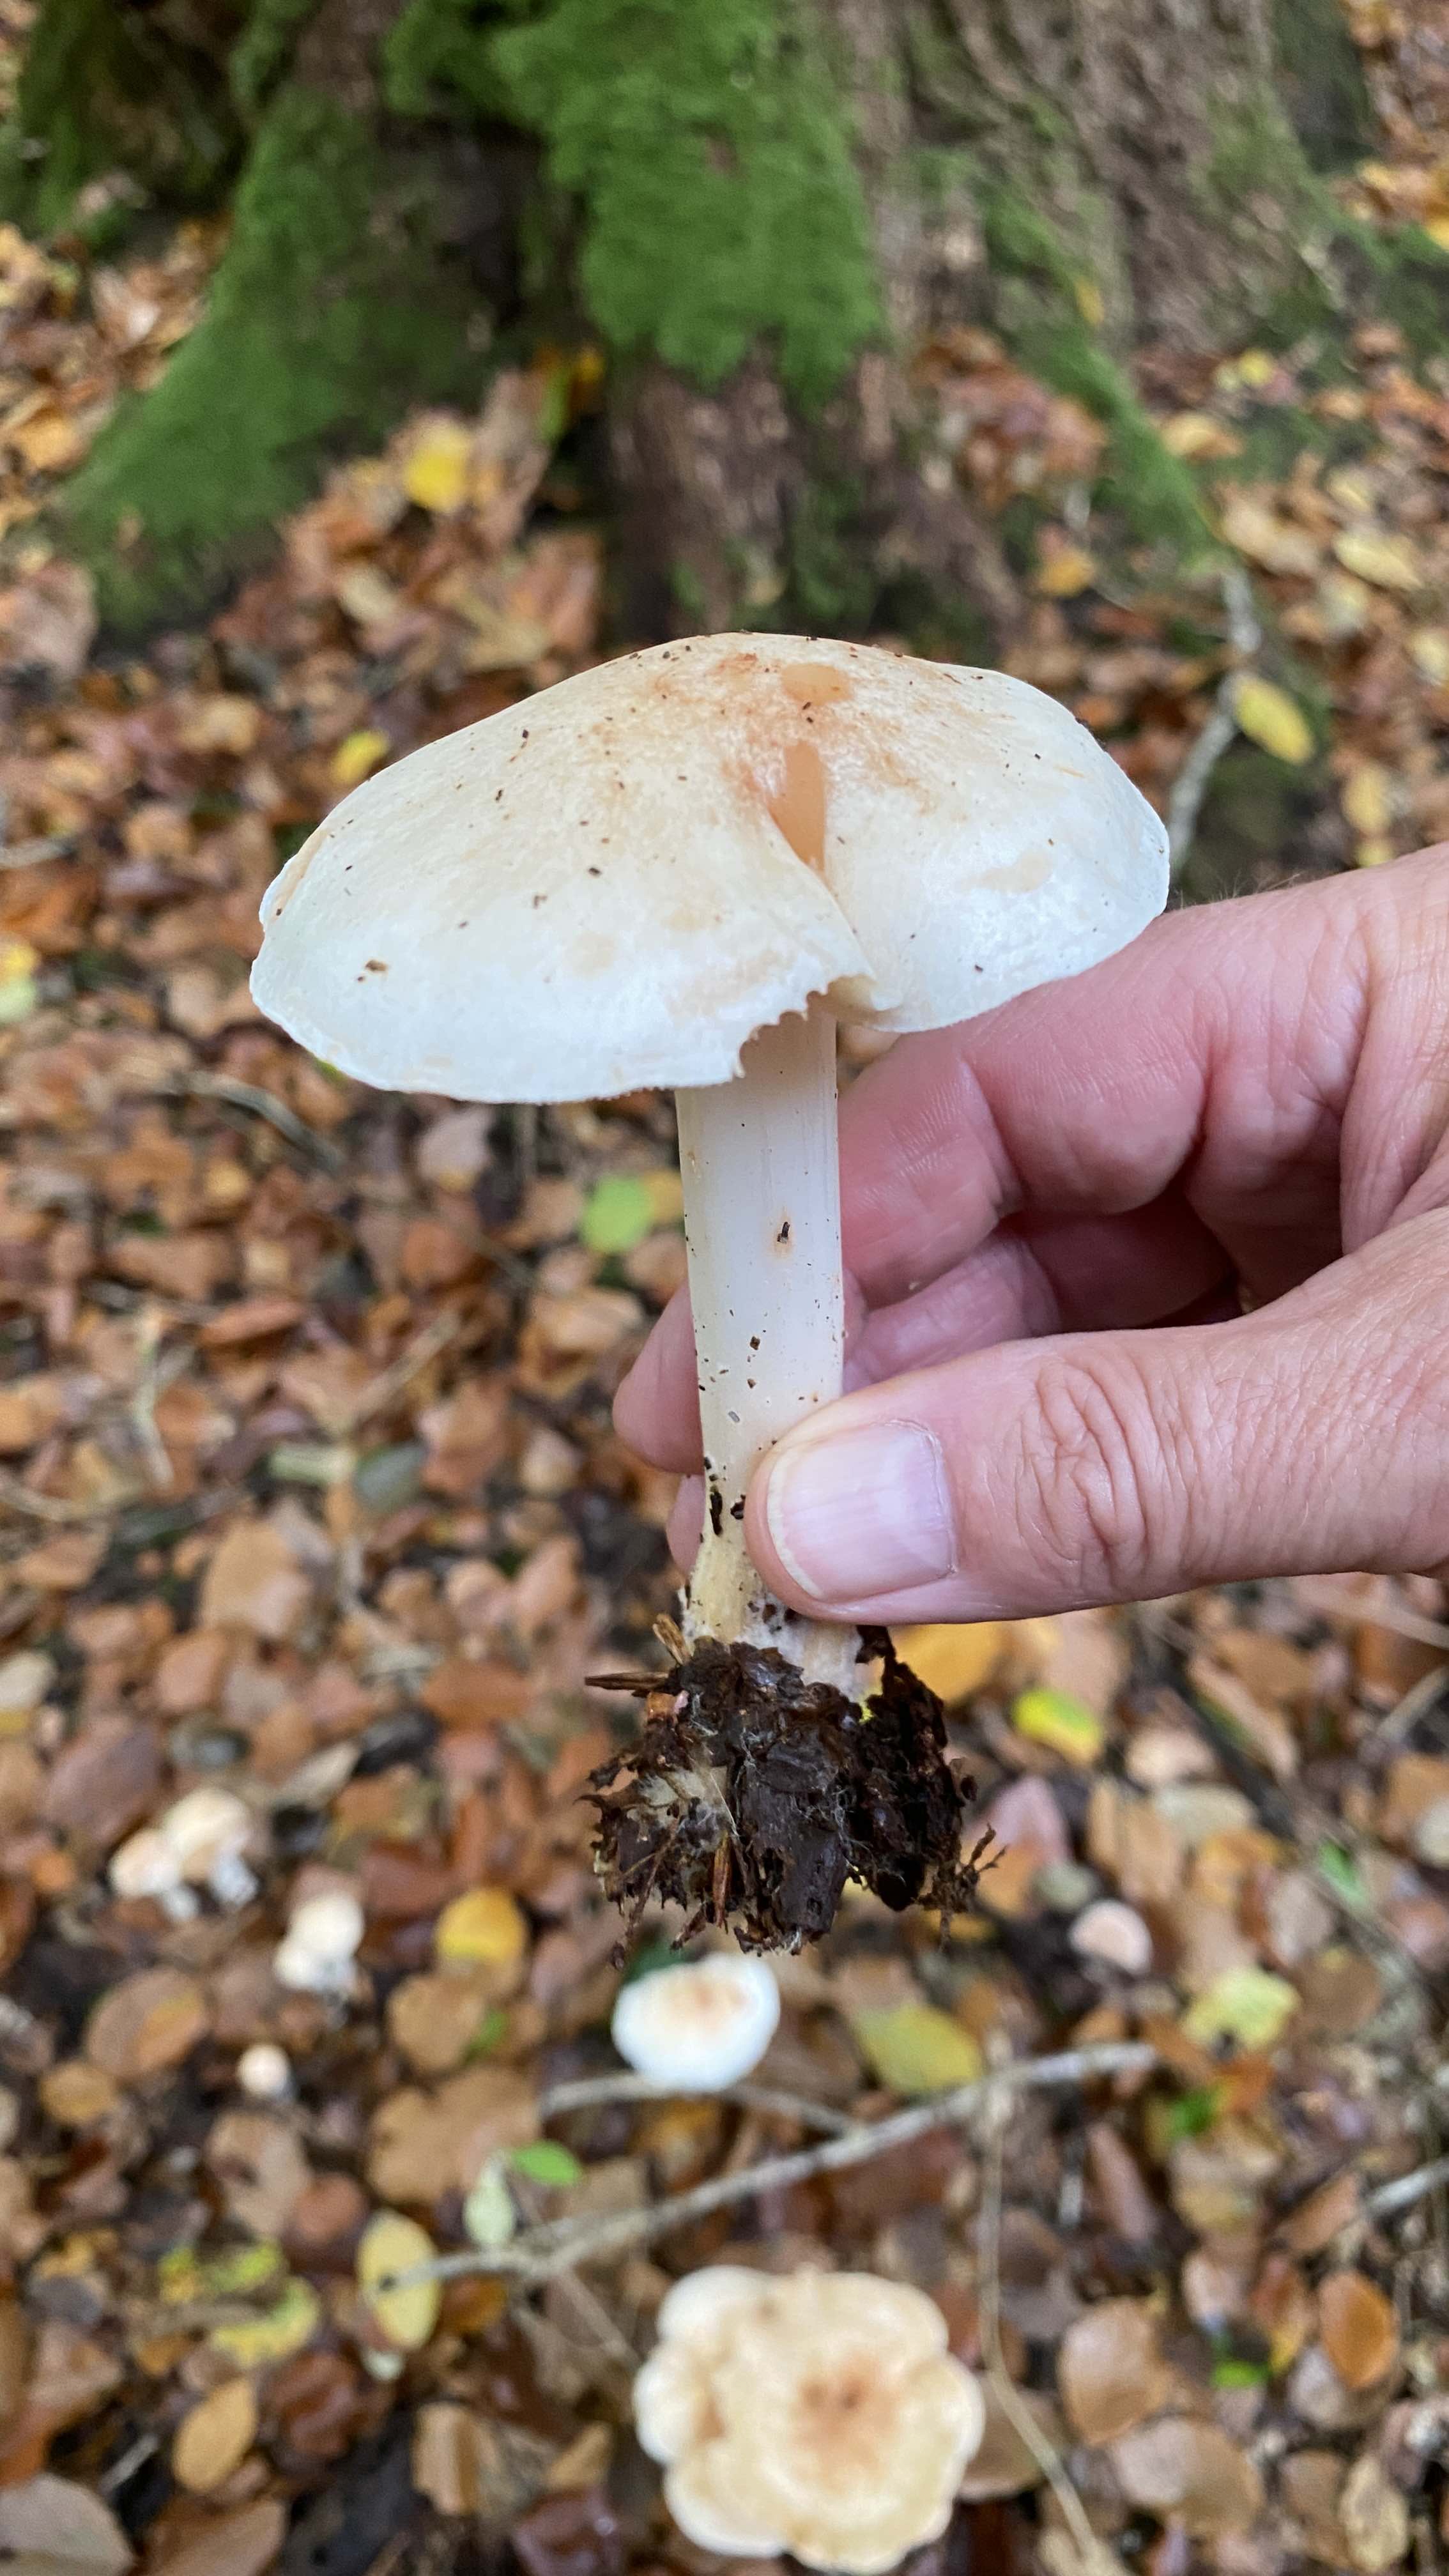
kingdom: Fungi
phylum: Basidiomycota
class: Agaricomycetes
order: Agaricales
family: Omphalotaceae
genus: Rhodocollybia
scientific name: Rhodocollybia maculata
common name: plettet fladhat
